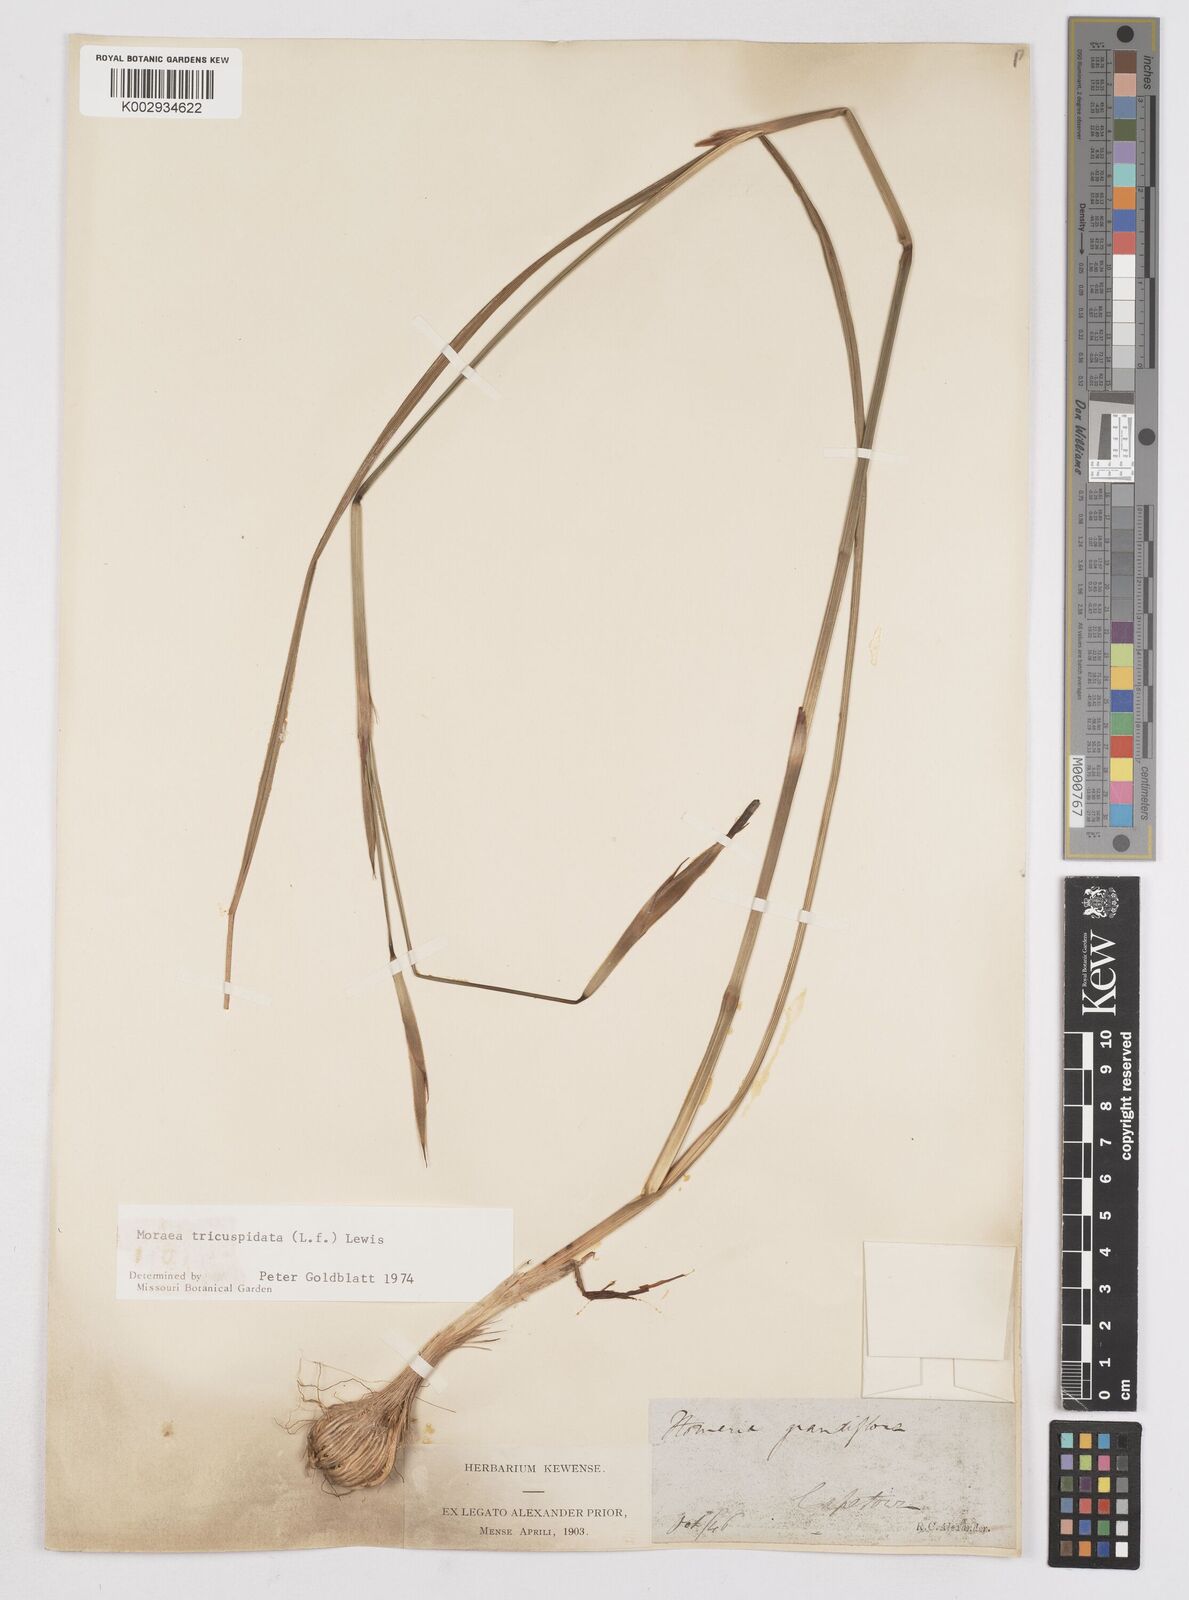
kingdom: Plantae
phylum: Tracheophyta
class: Liliopsida
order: Asparagales
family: Iridaceae
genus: Moraea
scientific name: Moraea tricuspidata
